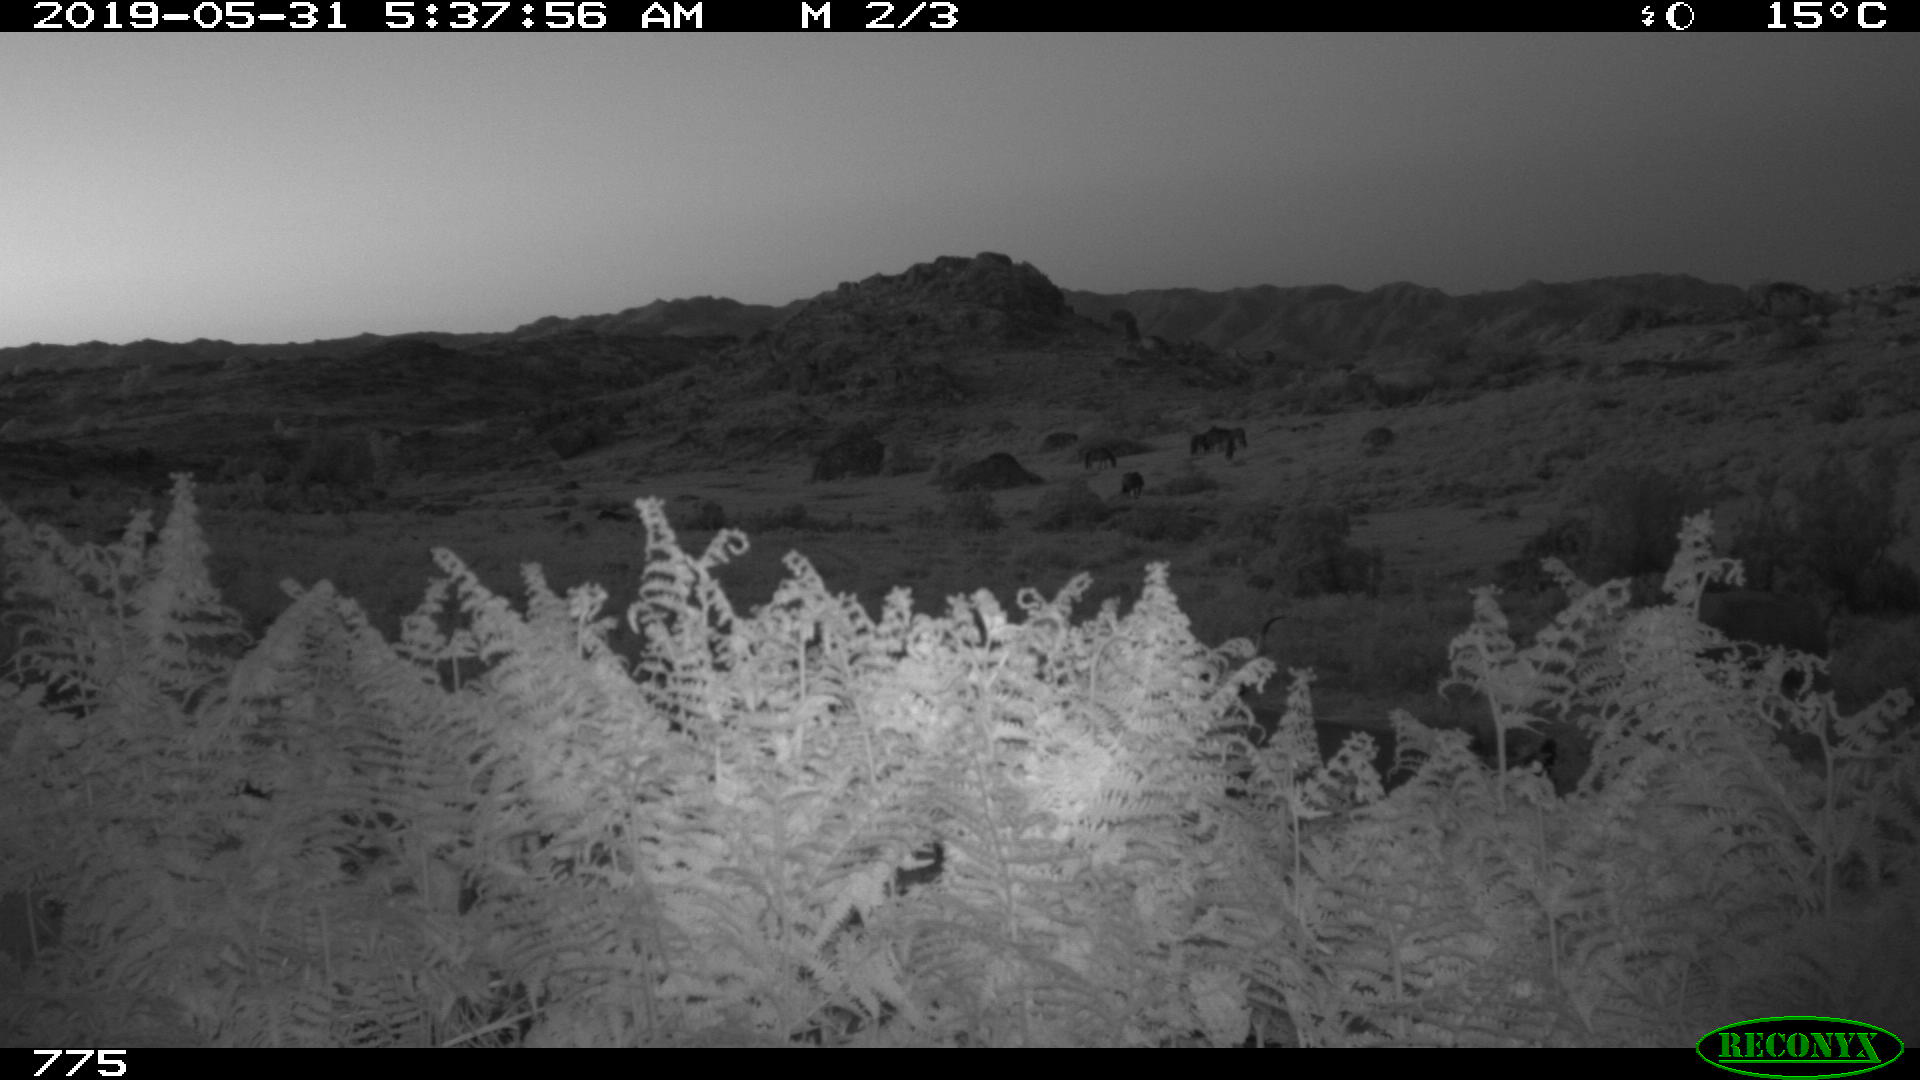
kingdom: Animalia
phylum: Chordata
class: Mammalia
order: Artiodactyla
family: Bovidae
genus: Bos
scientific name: Bos taurus
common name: Domesticated cattle
